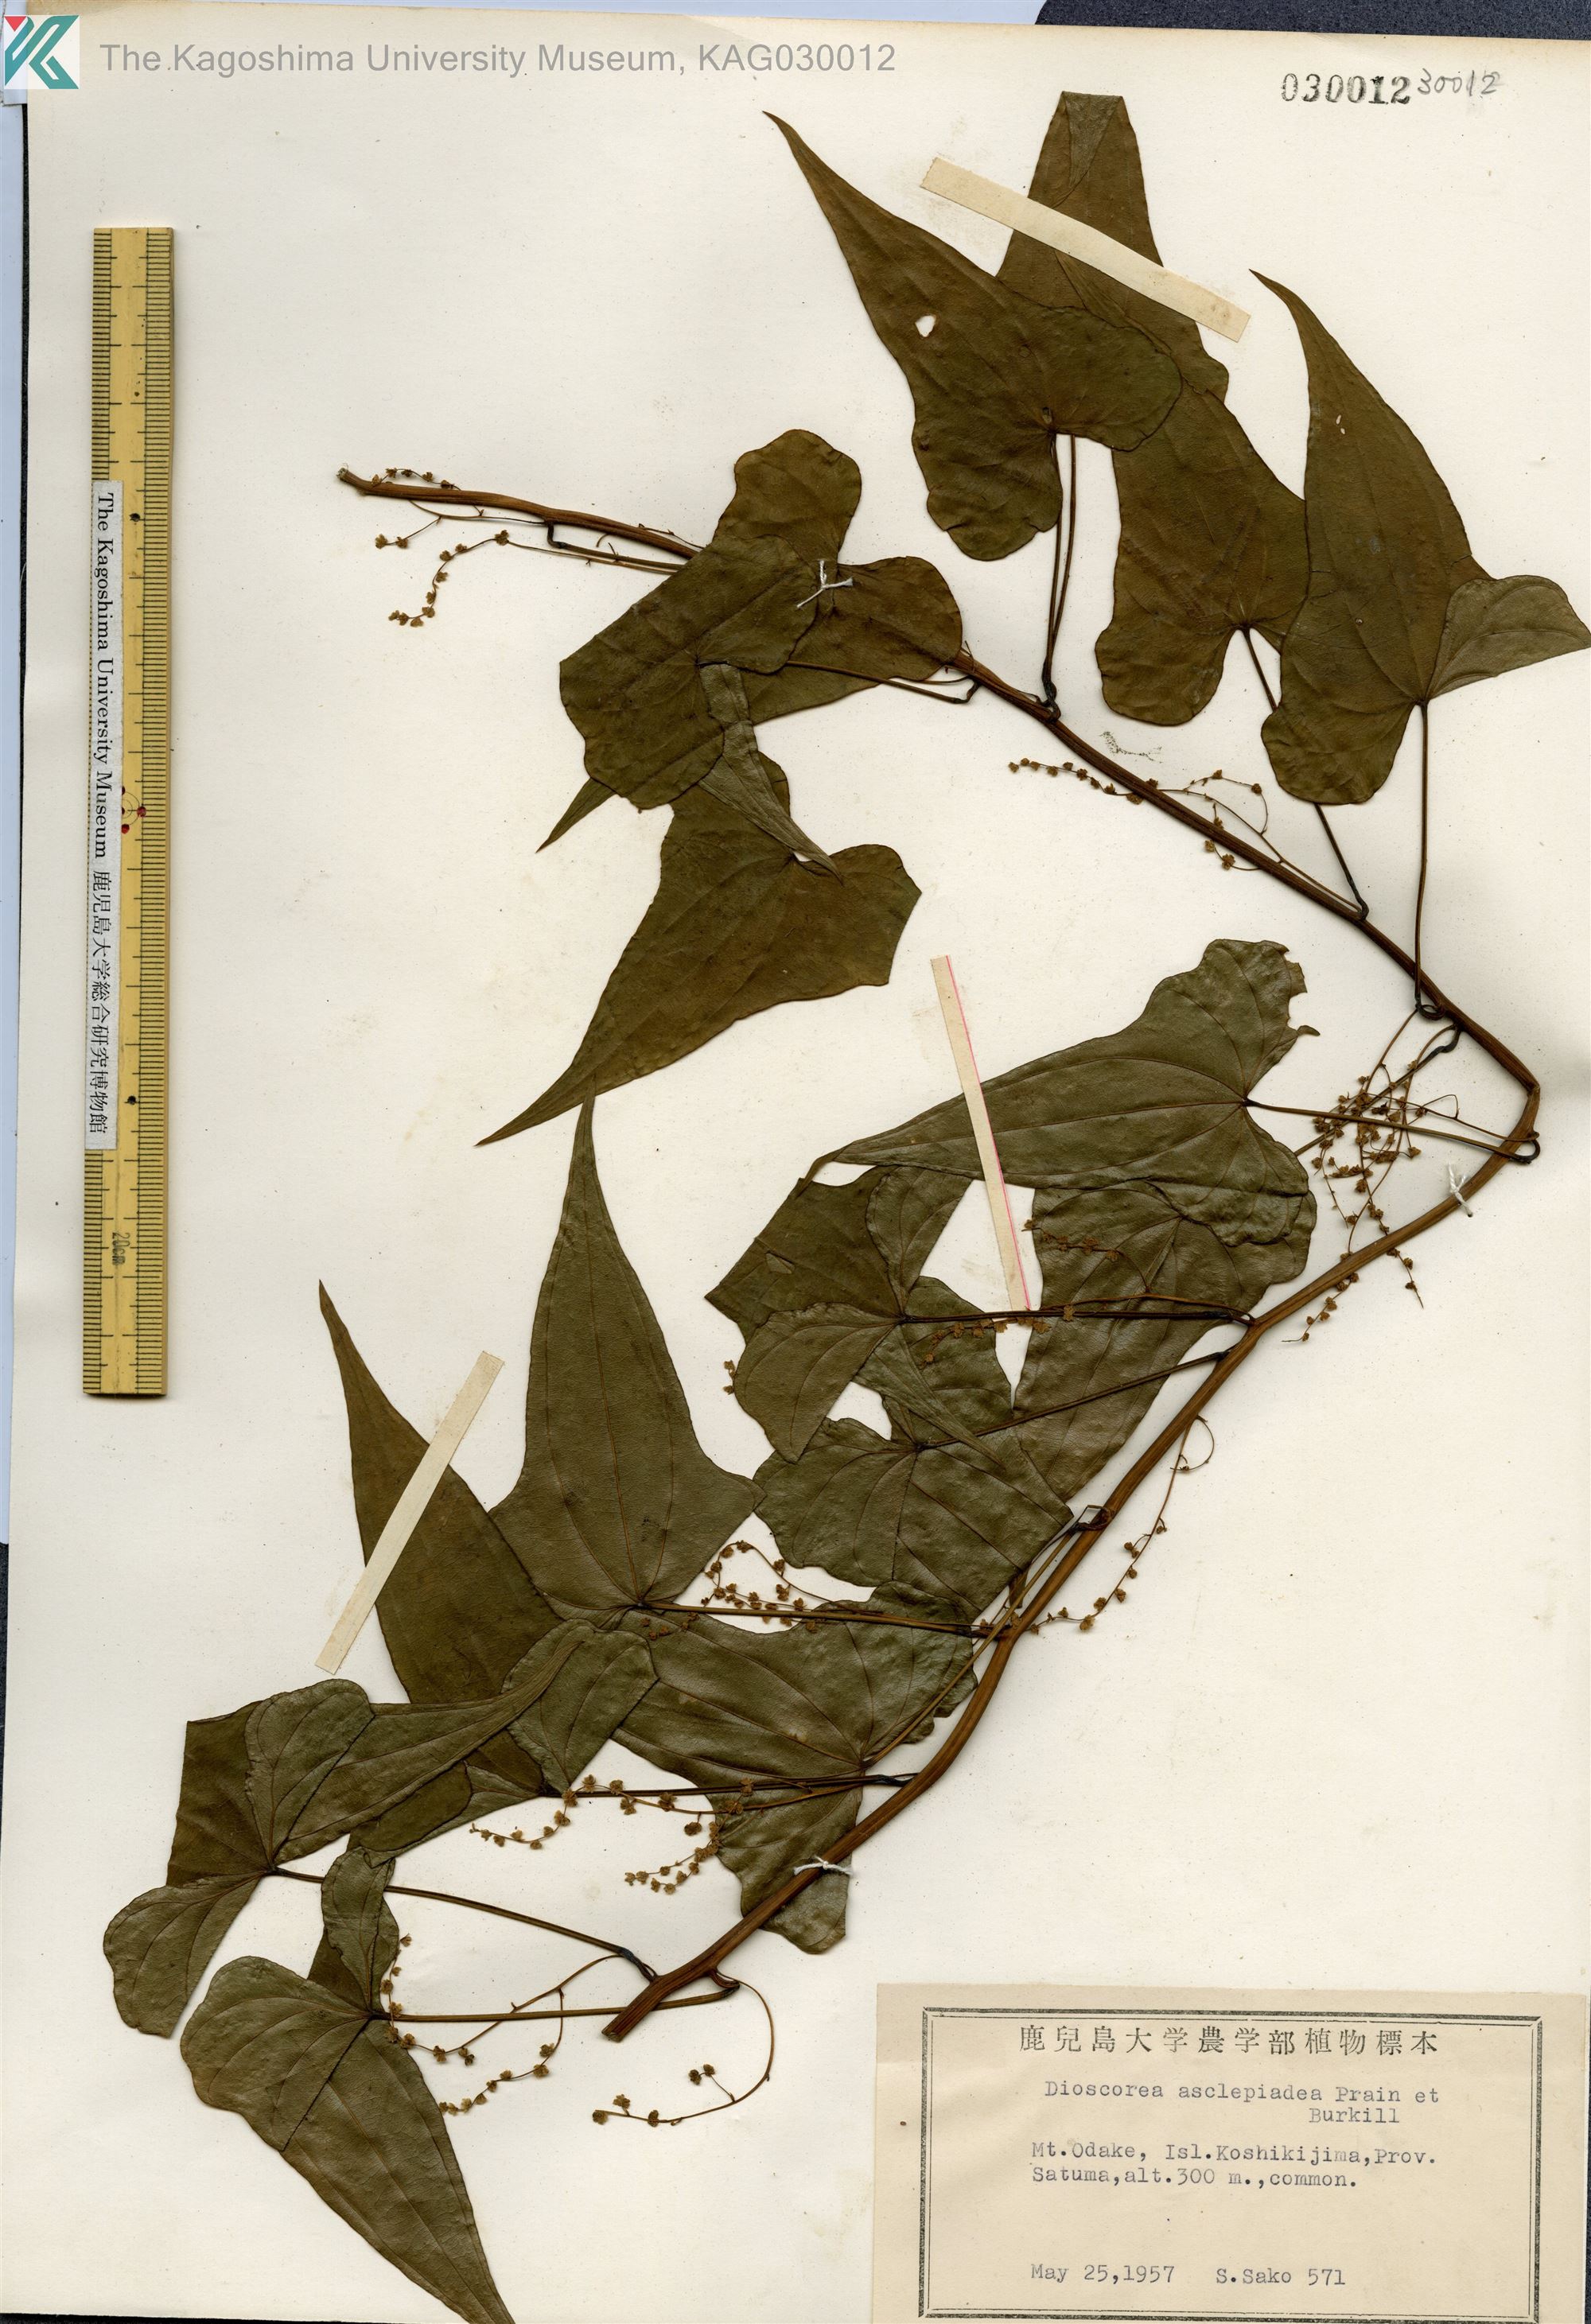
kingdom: Plantae
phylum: Tracheophyta
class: Liliopsida
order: Dioscoreales
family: Dioscoreaceae
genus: Dioscorea
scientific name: Dioscorea asclepiadea
